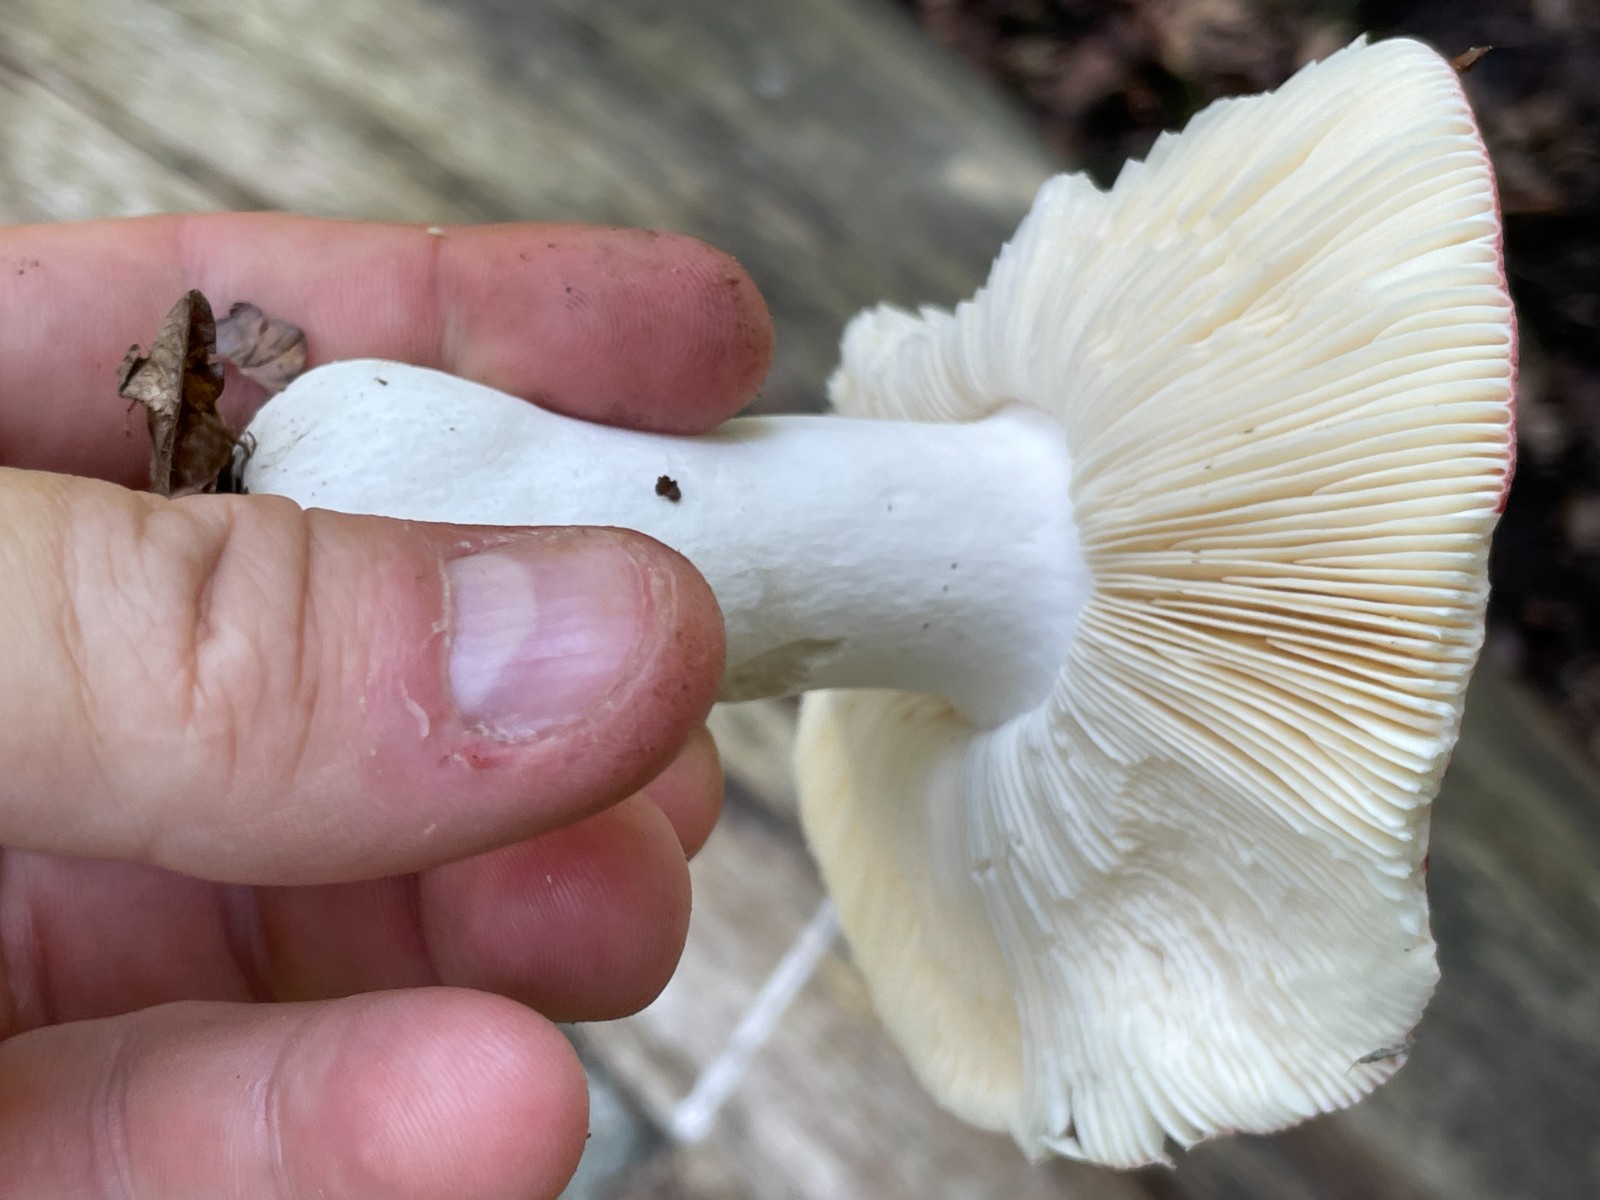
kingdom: Fungi
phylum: Basidiomycota
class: Agaricomycetes
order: Russulales
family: Russulaceae
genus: Russula
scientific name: Russula pseudointegra
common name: cinnoberrød skørhat
